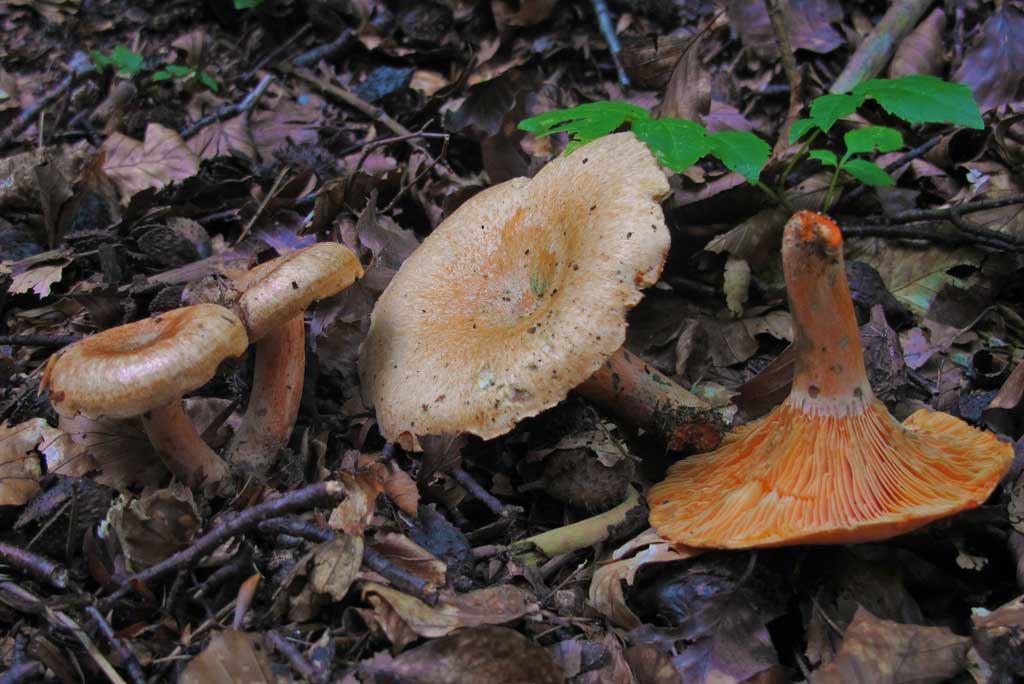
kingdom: Fungi
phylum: Basidiomycota
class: Agaricomycetes
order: Russulales
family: Russulaceae
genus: Lactarius
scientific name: Lactarius deterrimus
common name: gran-mælkehat
